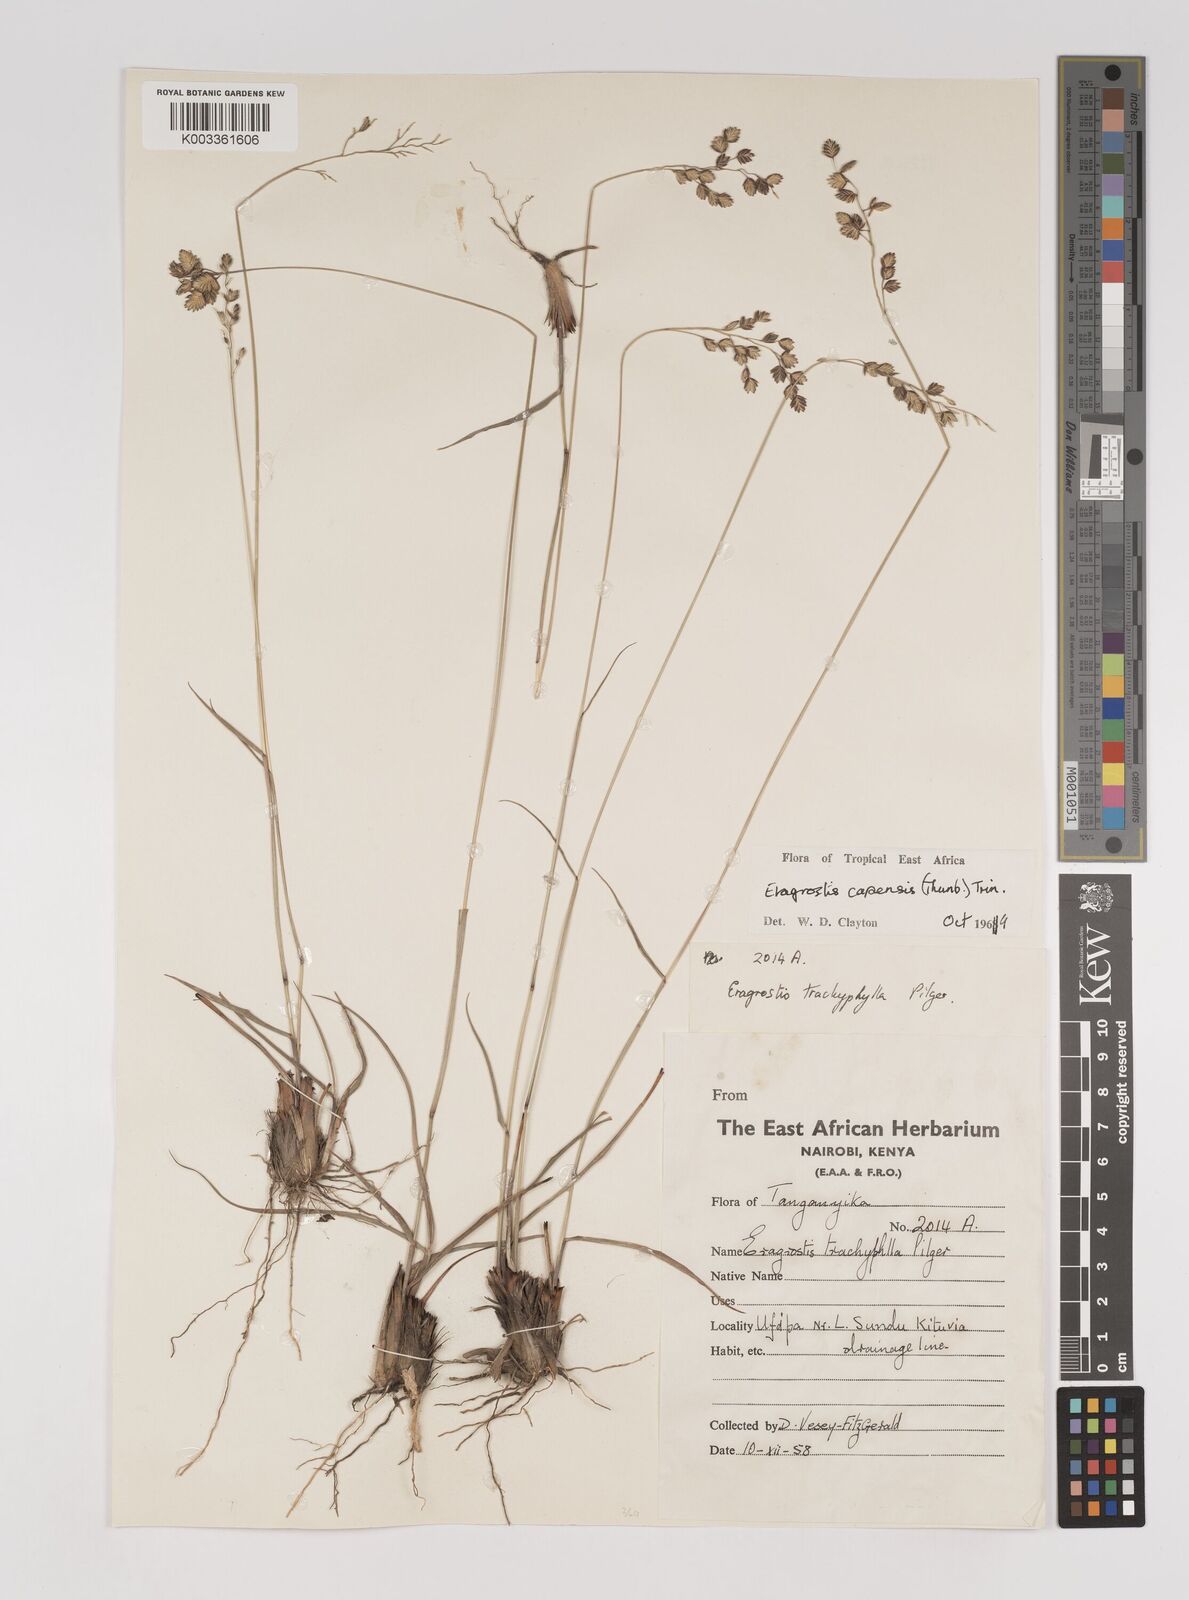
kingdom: Plantae
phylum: Tracheophyta
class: Liliopsida
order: Poales
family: Poaceae
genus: Eragrostis
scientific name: Eragrostis capensis
